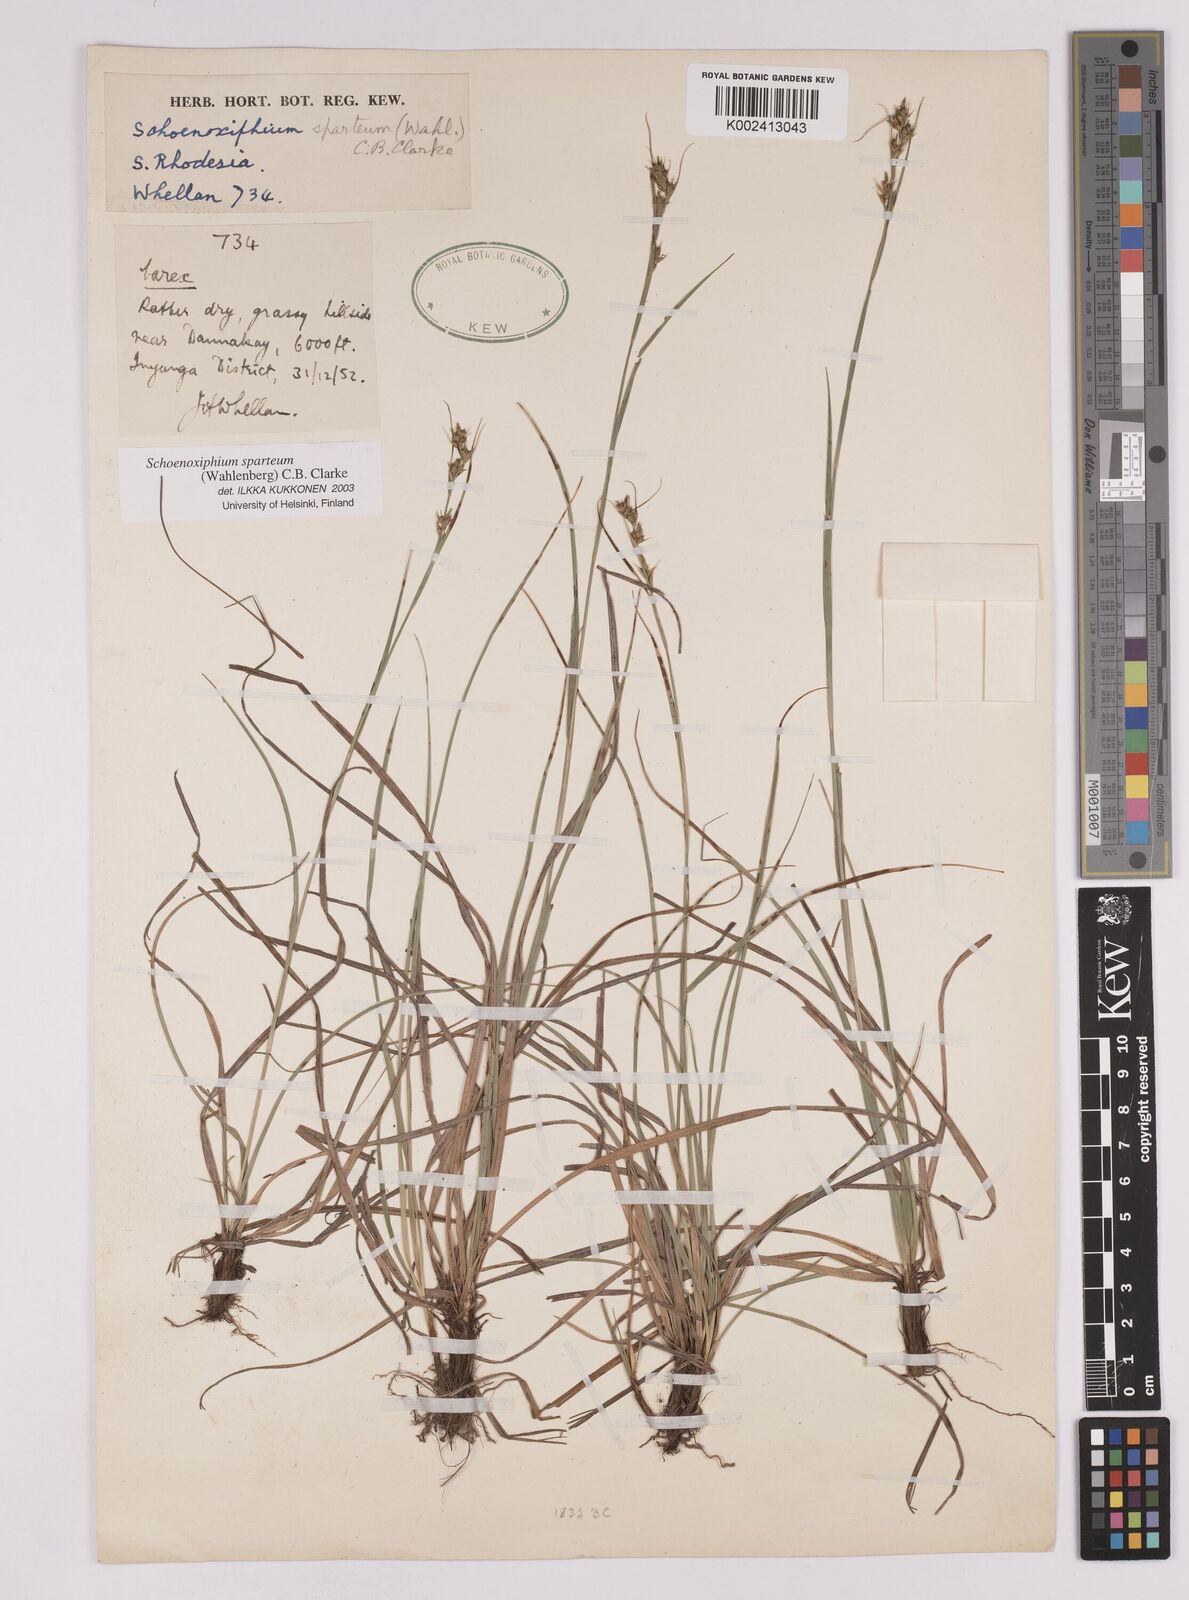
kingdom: Plantae
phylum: Tracheophyta
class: Liliopsida
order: Poales
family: Cyperaceae
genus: Carex
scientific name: Carex spartea
